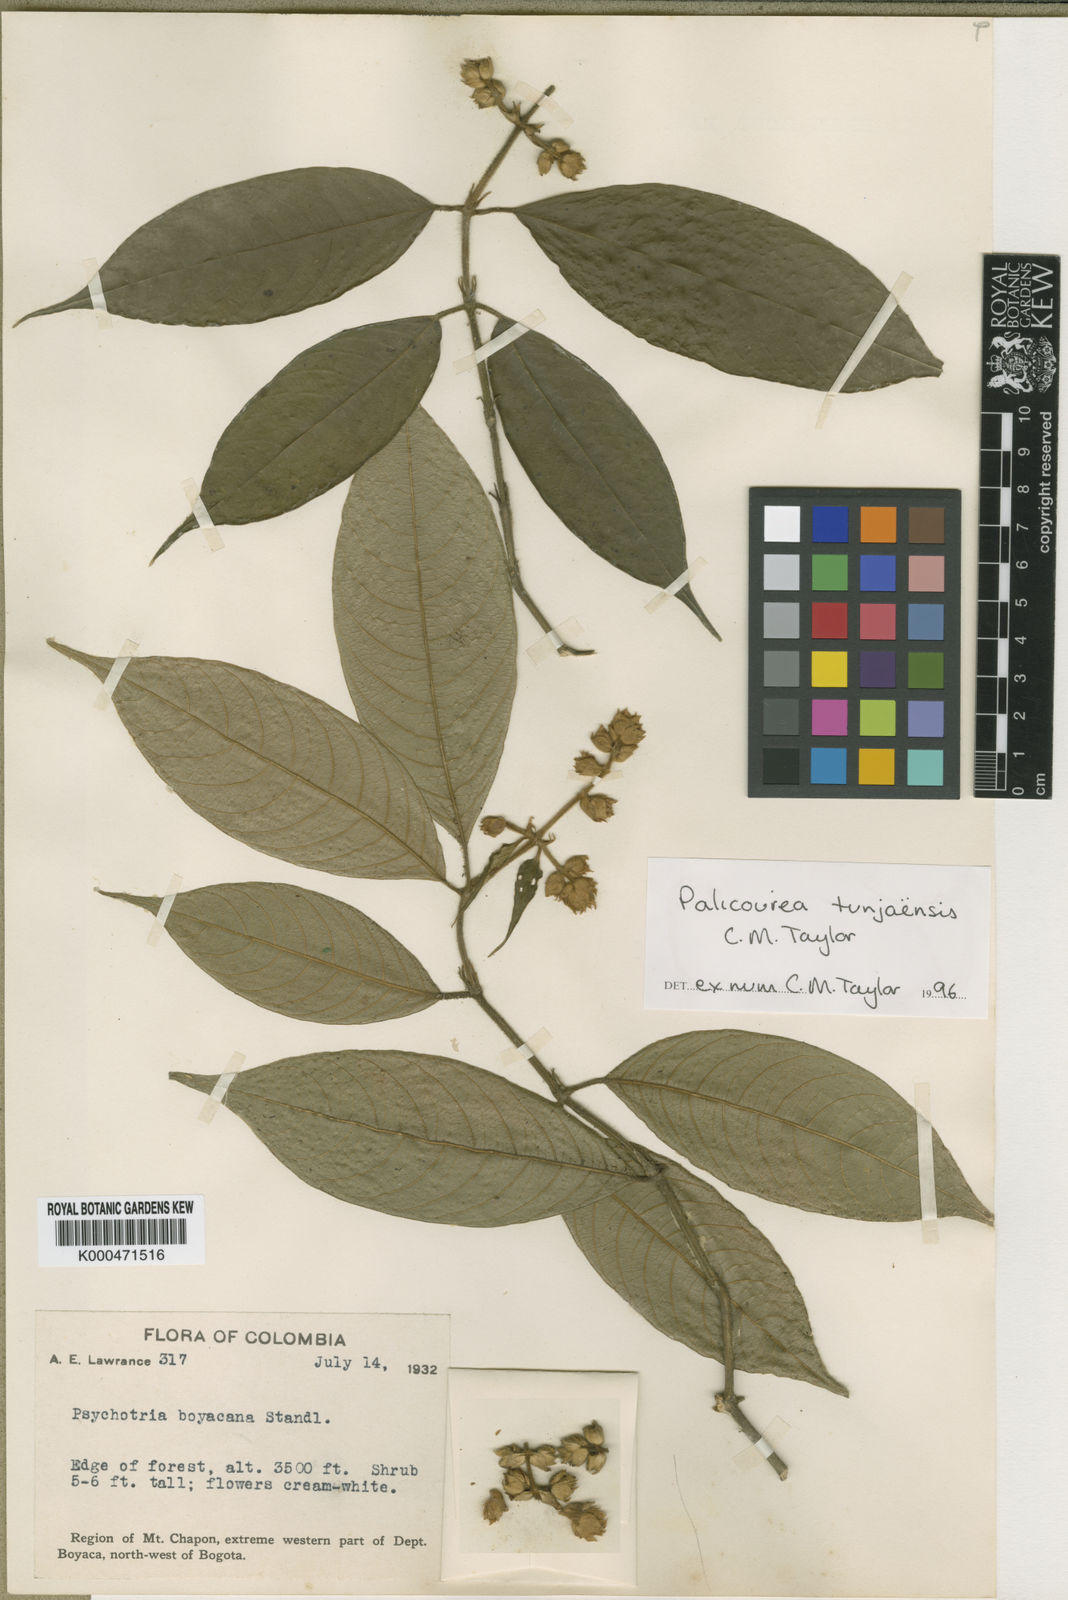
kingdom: Plantae
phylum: Tracheophyta
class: Magnoliopsida
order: Gentianales
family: Rubiaceae
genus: Palicourea
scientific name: Palicourea tunjaensis
